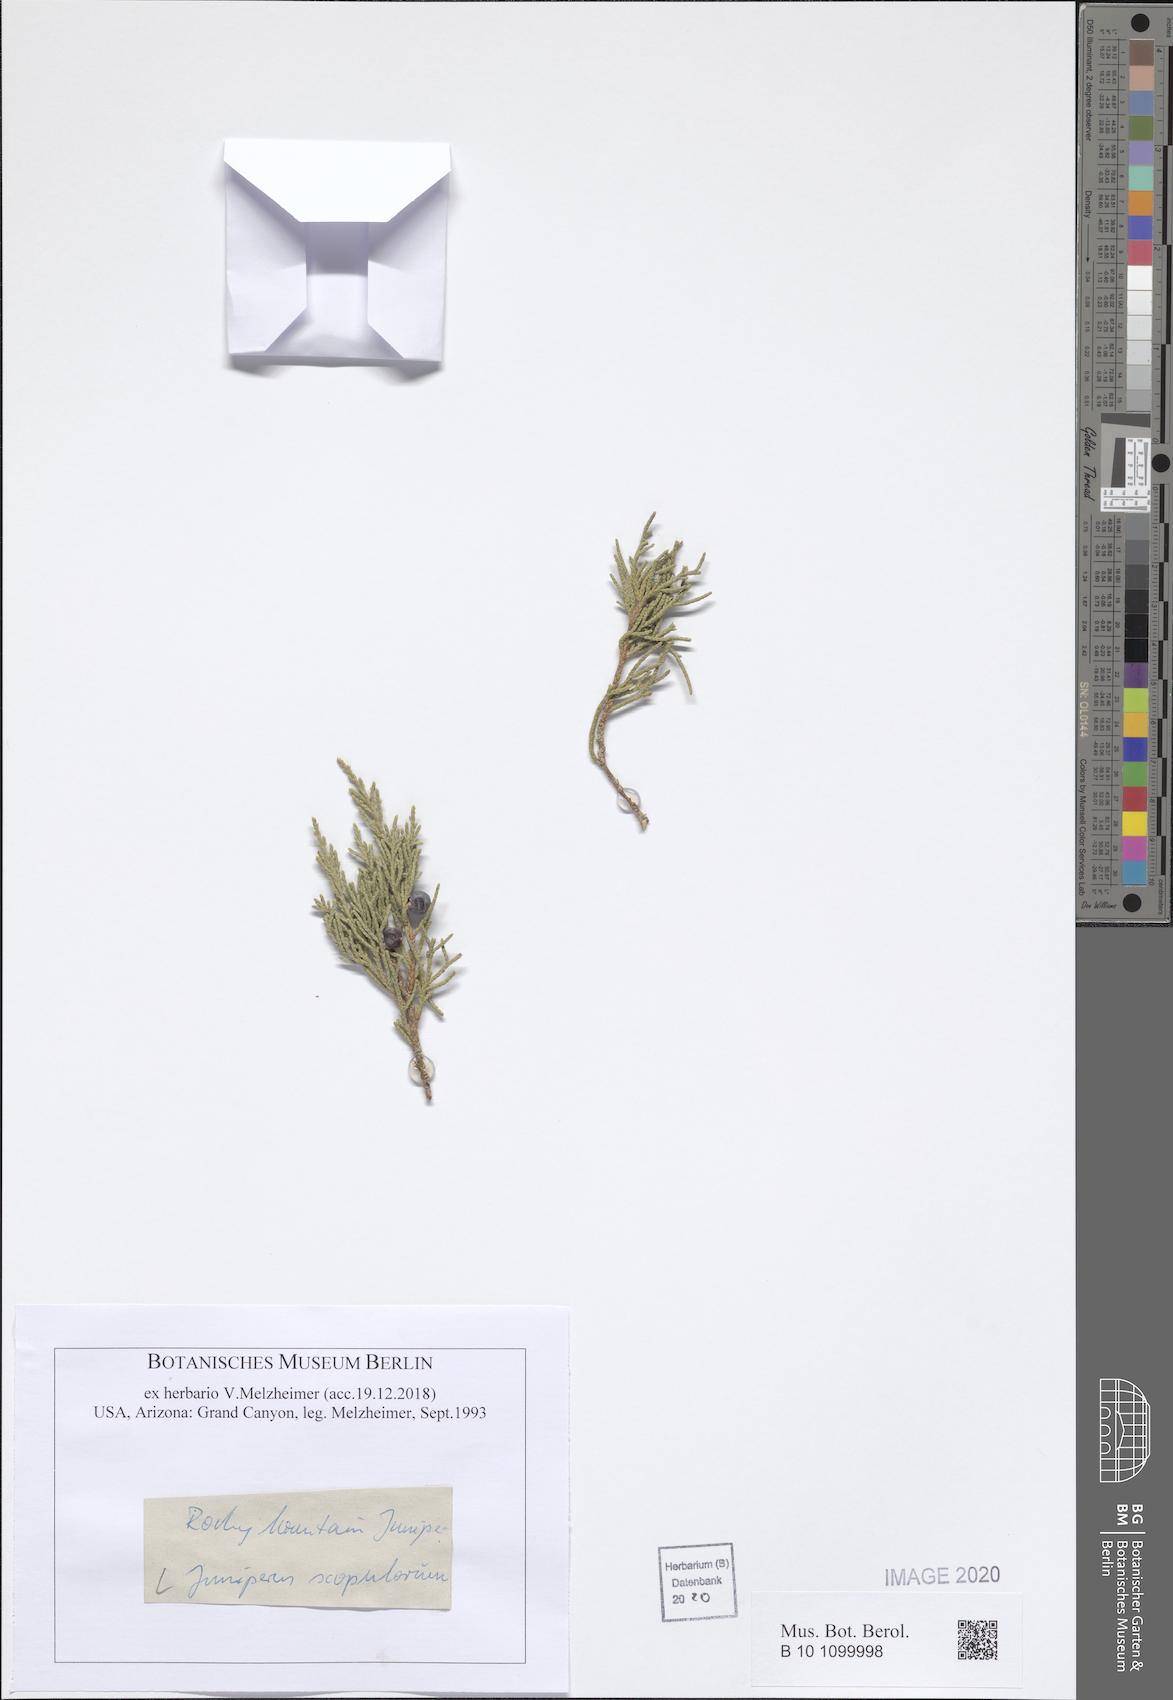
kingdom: Plantae
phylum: Tracheophyta
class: Pinopsida
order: Pinales
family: Cupressaceae
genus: Juniperus
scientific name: Juniperus scopulorum
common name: Rocky mountain juniper
